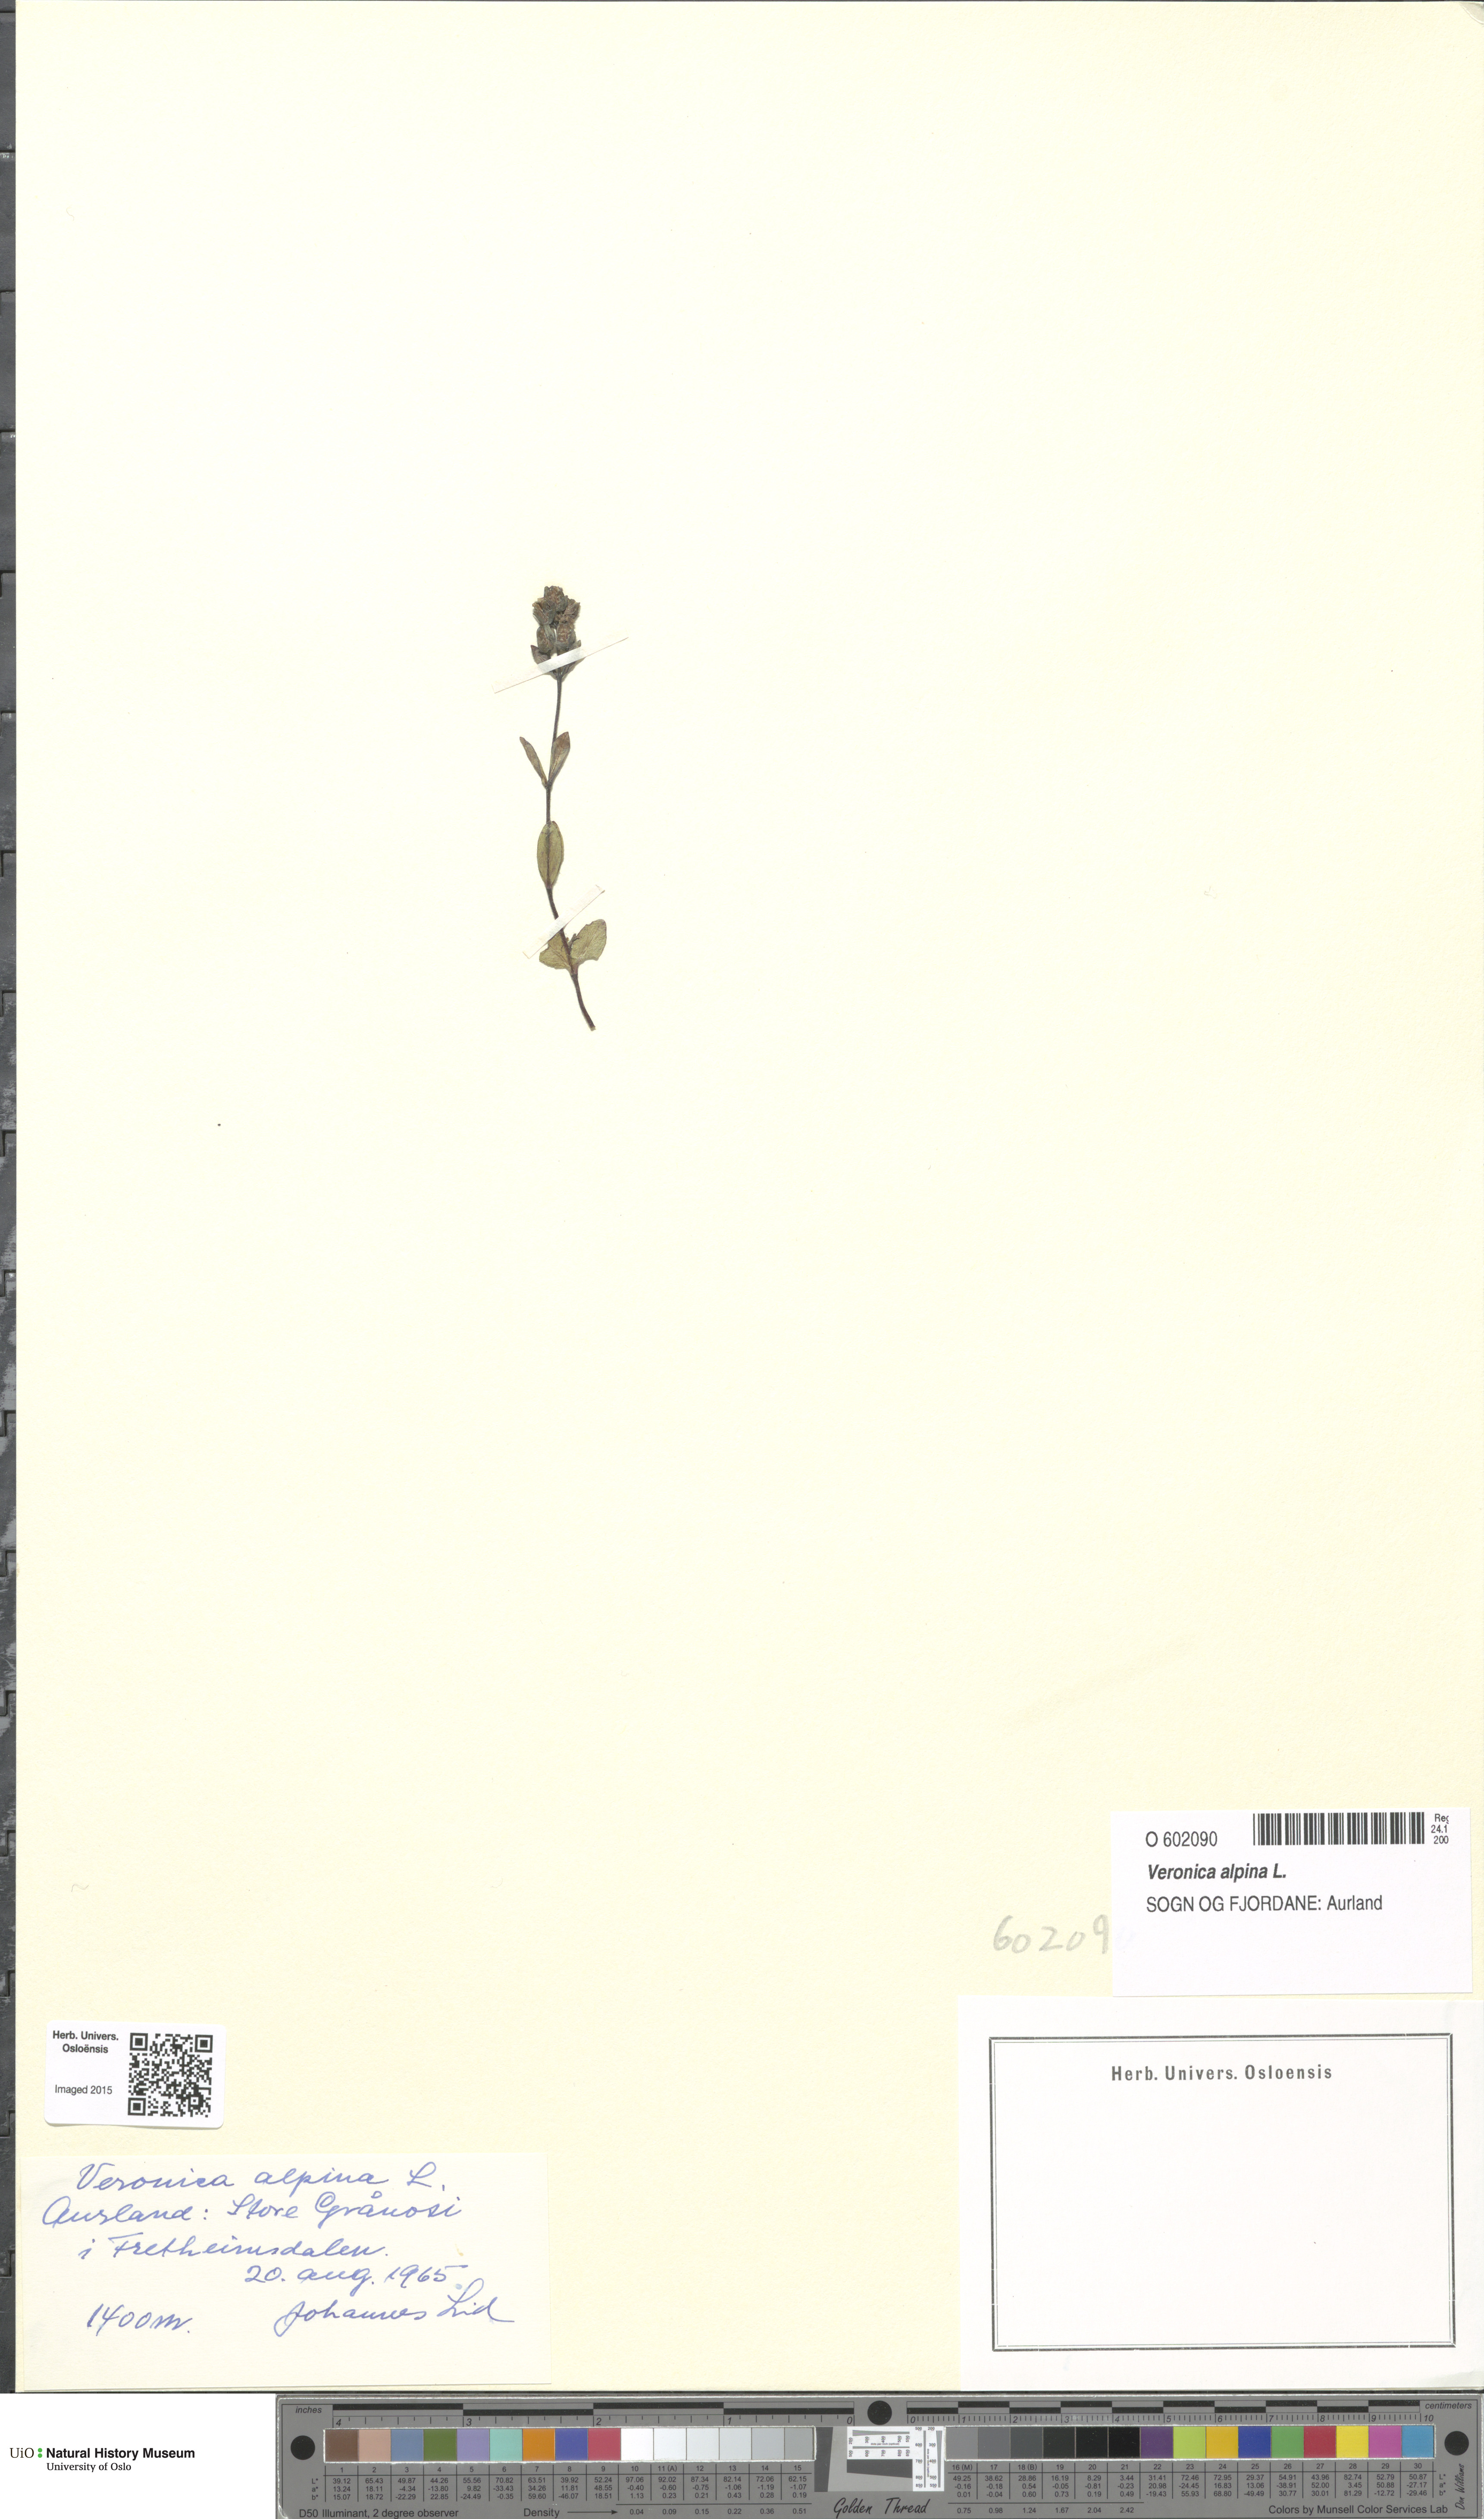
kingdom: Plantae
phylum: Tracheophyta
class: Magnoliopsida
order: Lamiales
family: Plantaginaceae
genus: Veronica
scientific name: Veronica alpina
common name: Alpine speedwell
